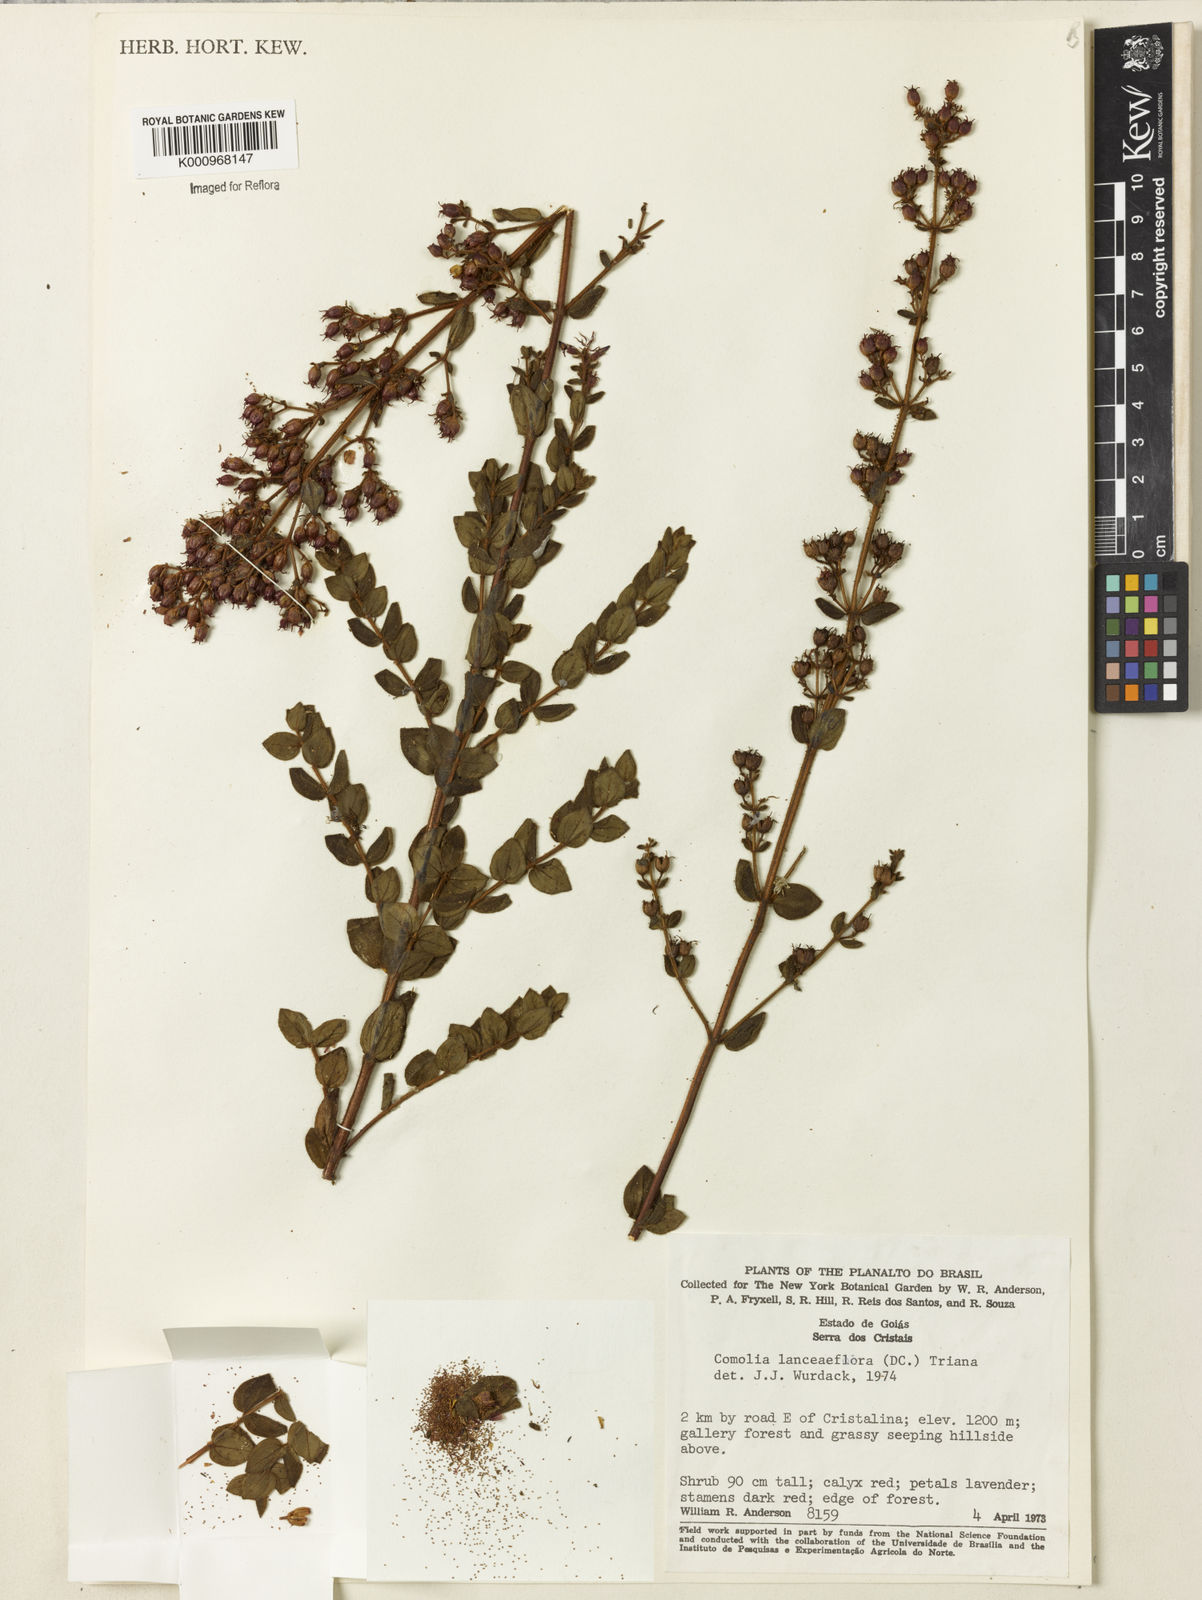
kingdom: Plantae
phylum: Tracheophyta
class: Magnoliopsida
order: Myrtales
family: Melastomataceae
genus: Fritzschia
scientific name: Fritzschia lanceiflora
